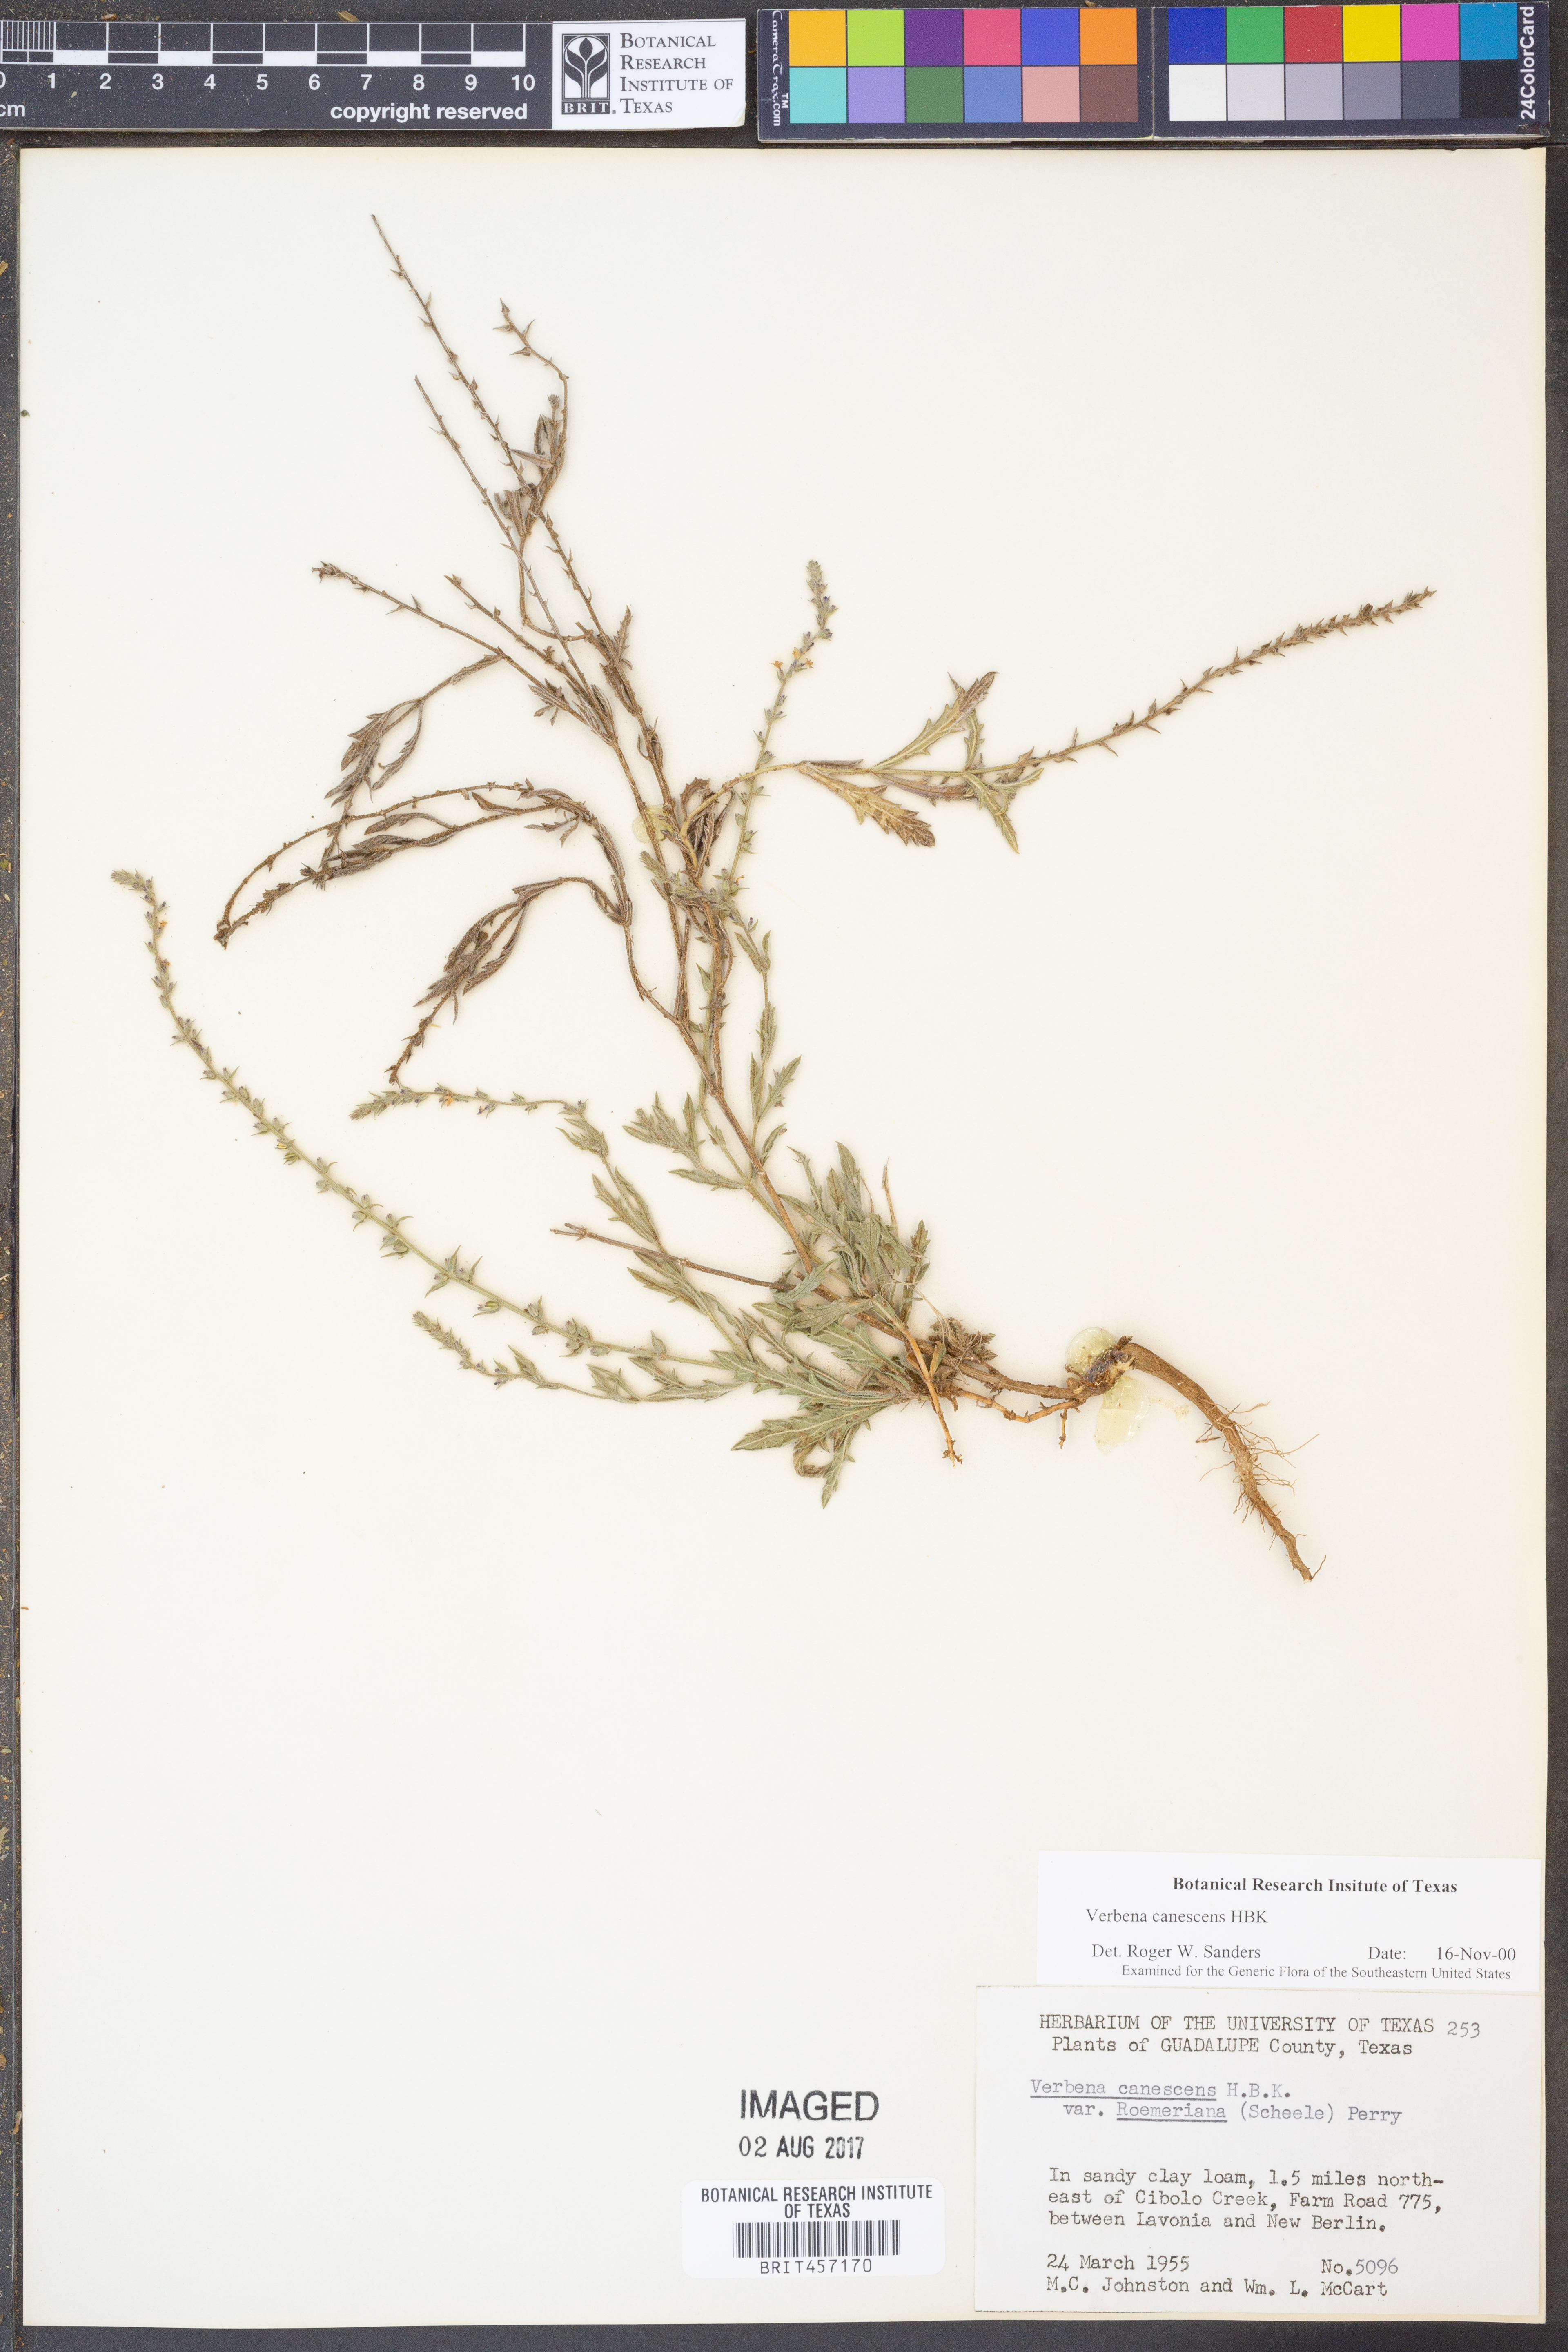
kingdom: Plantae
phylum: Tracheophyta
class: Magnoliopsida
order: Lamiales
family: Verbenaceae
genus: Verbena
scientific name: Verbena canescens
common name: Gray vervain
